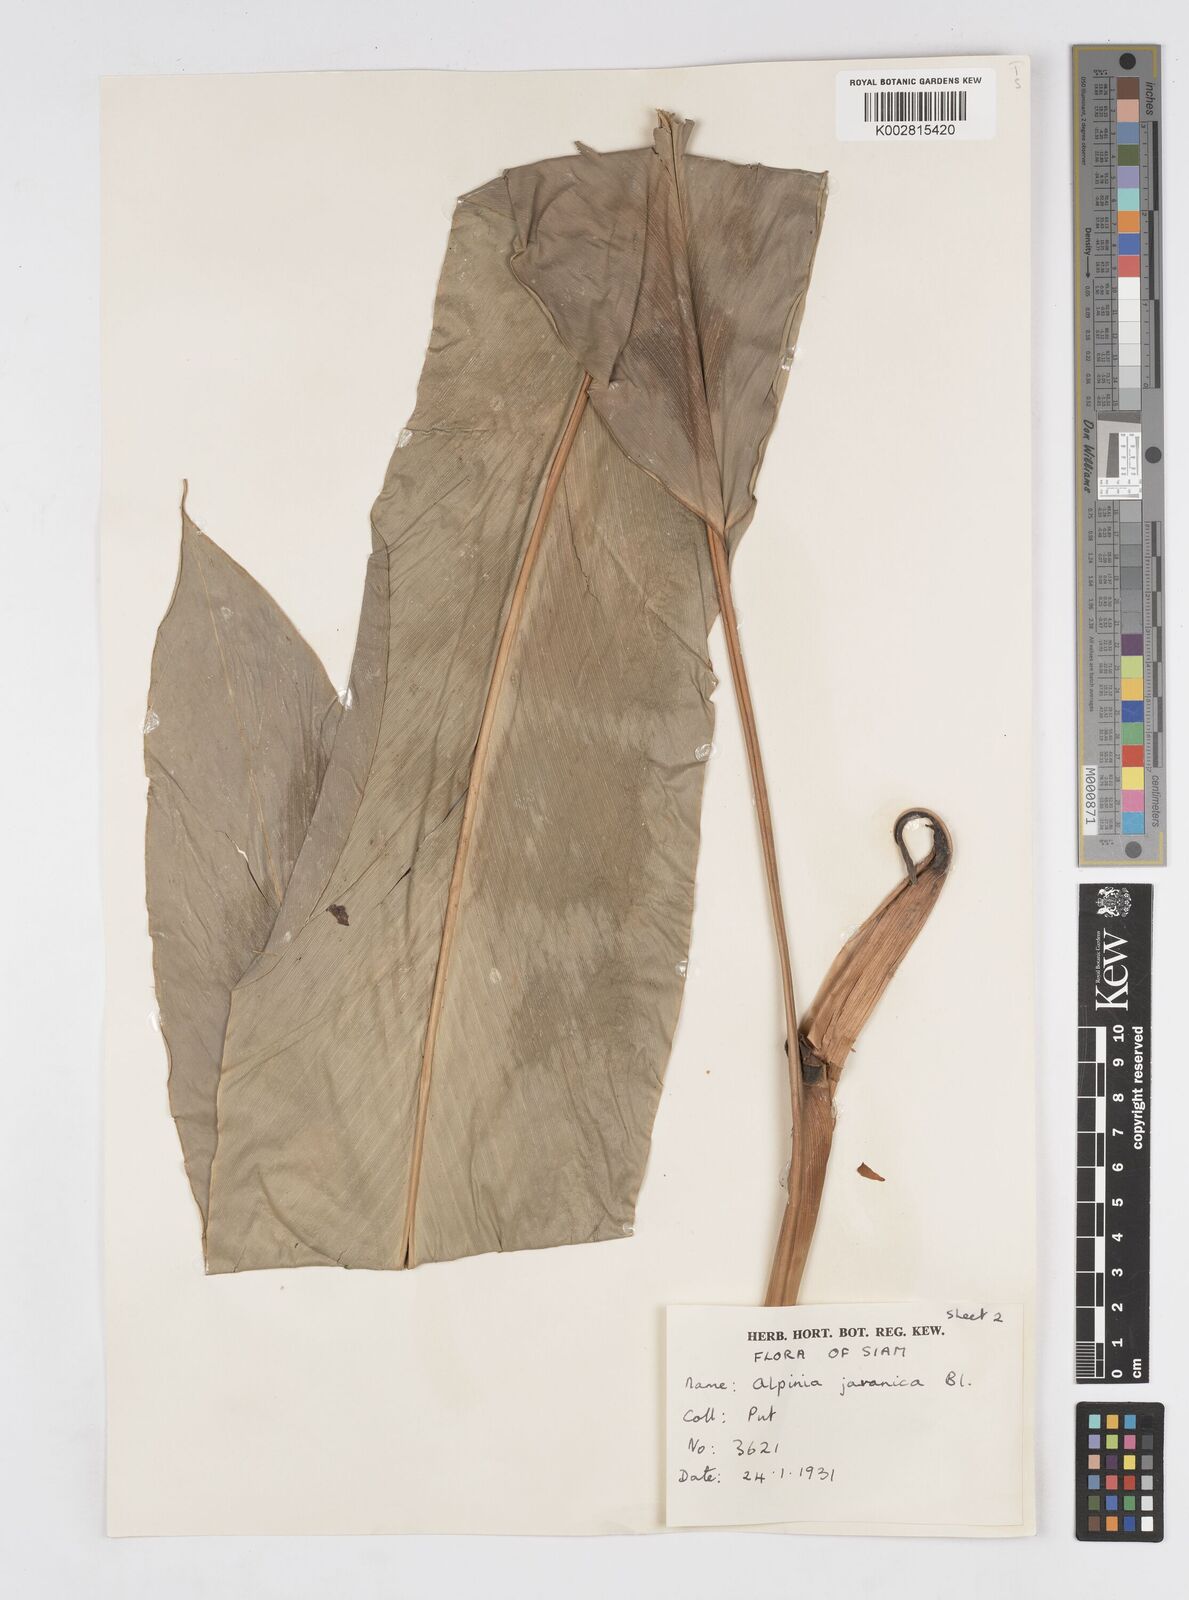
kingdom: Plantae
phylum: Tracheophyta
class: Liliopsida
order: Zingiberales
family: Zingiberaceae
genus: Alpinia
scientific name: Alpinia javanica
